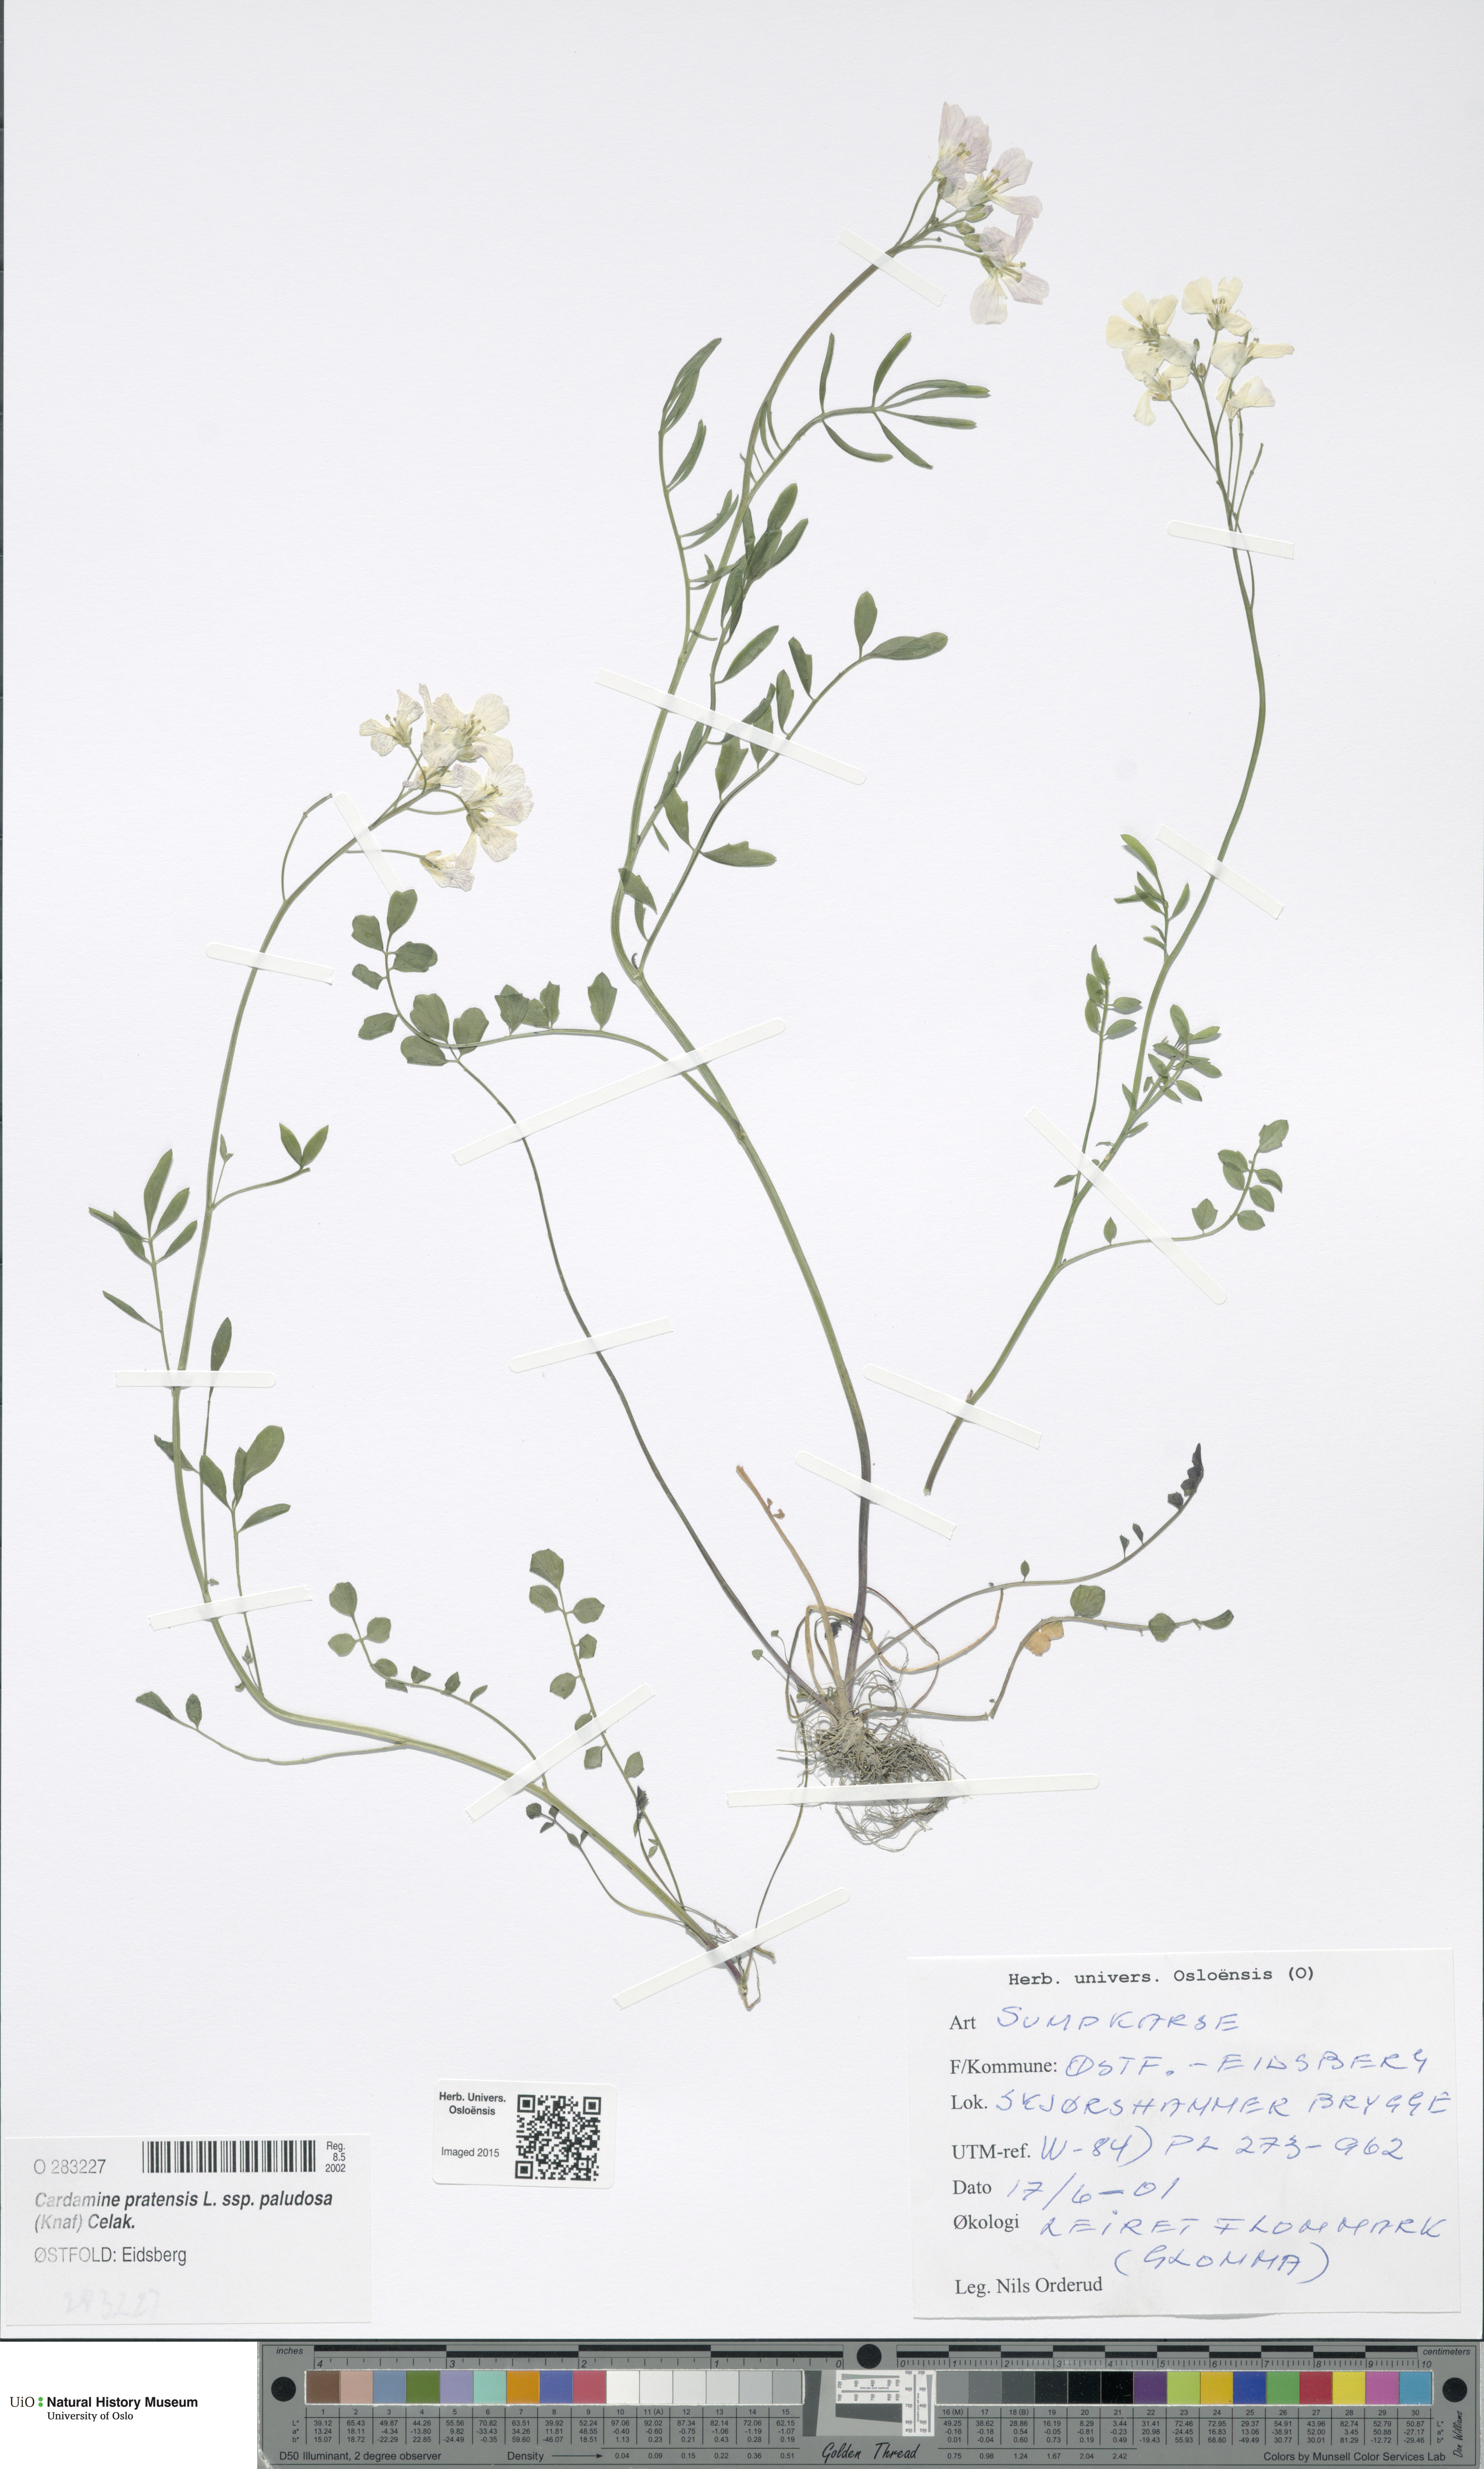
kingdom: Plantae
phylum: Tracheophyta
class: Magnoliopsida
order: Brassicales
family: Brassicaceae
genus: Cardamine
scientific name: Cardamine dentata
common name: Toothed bittercress
